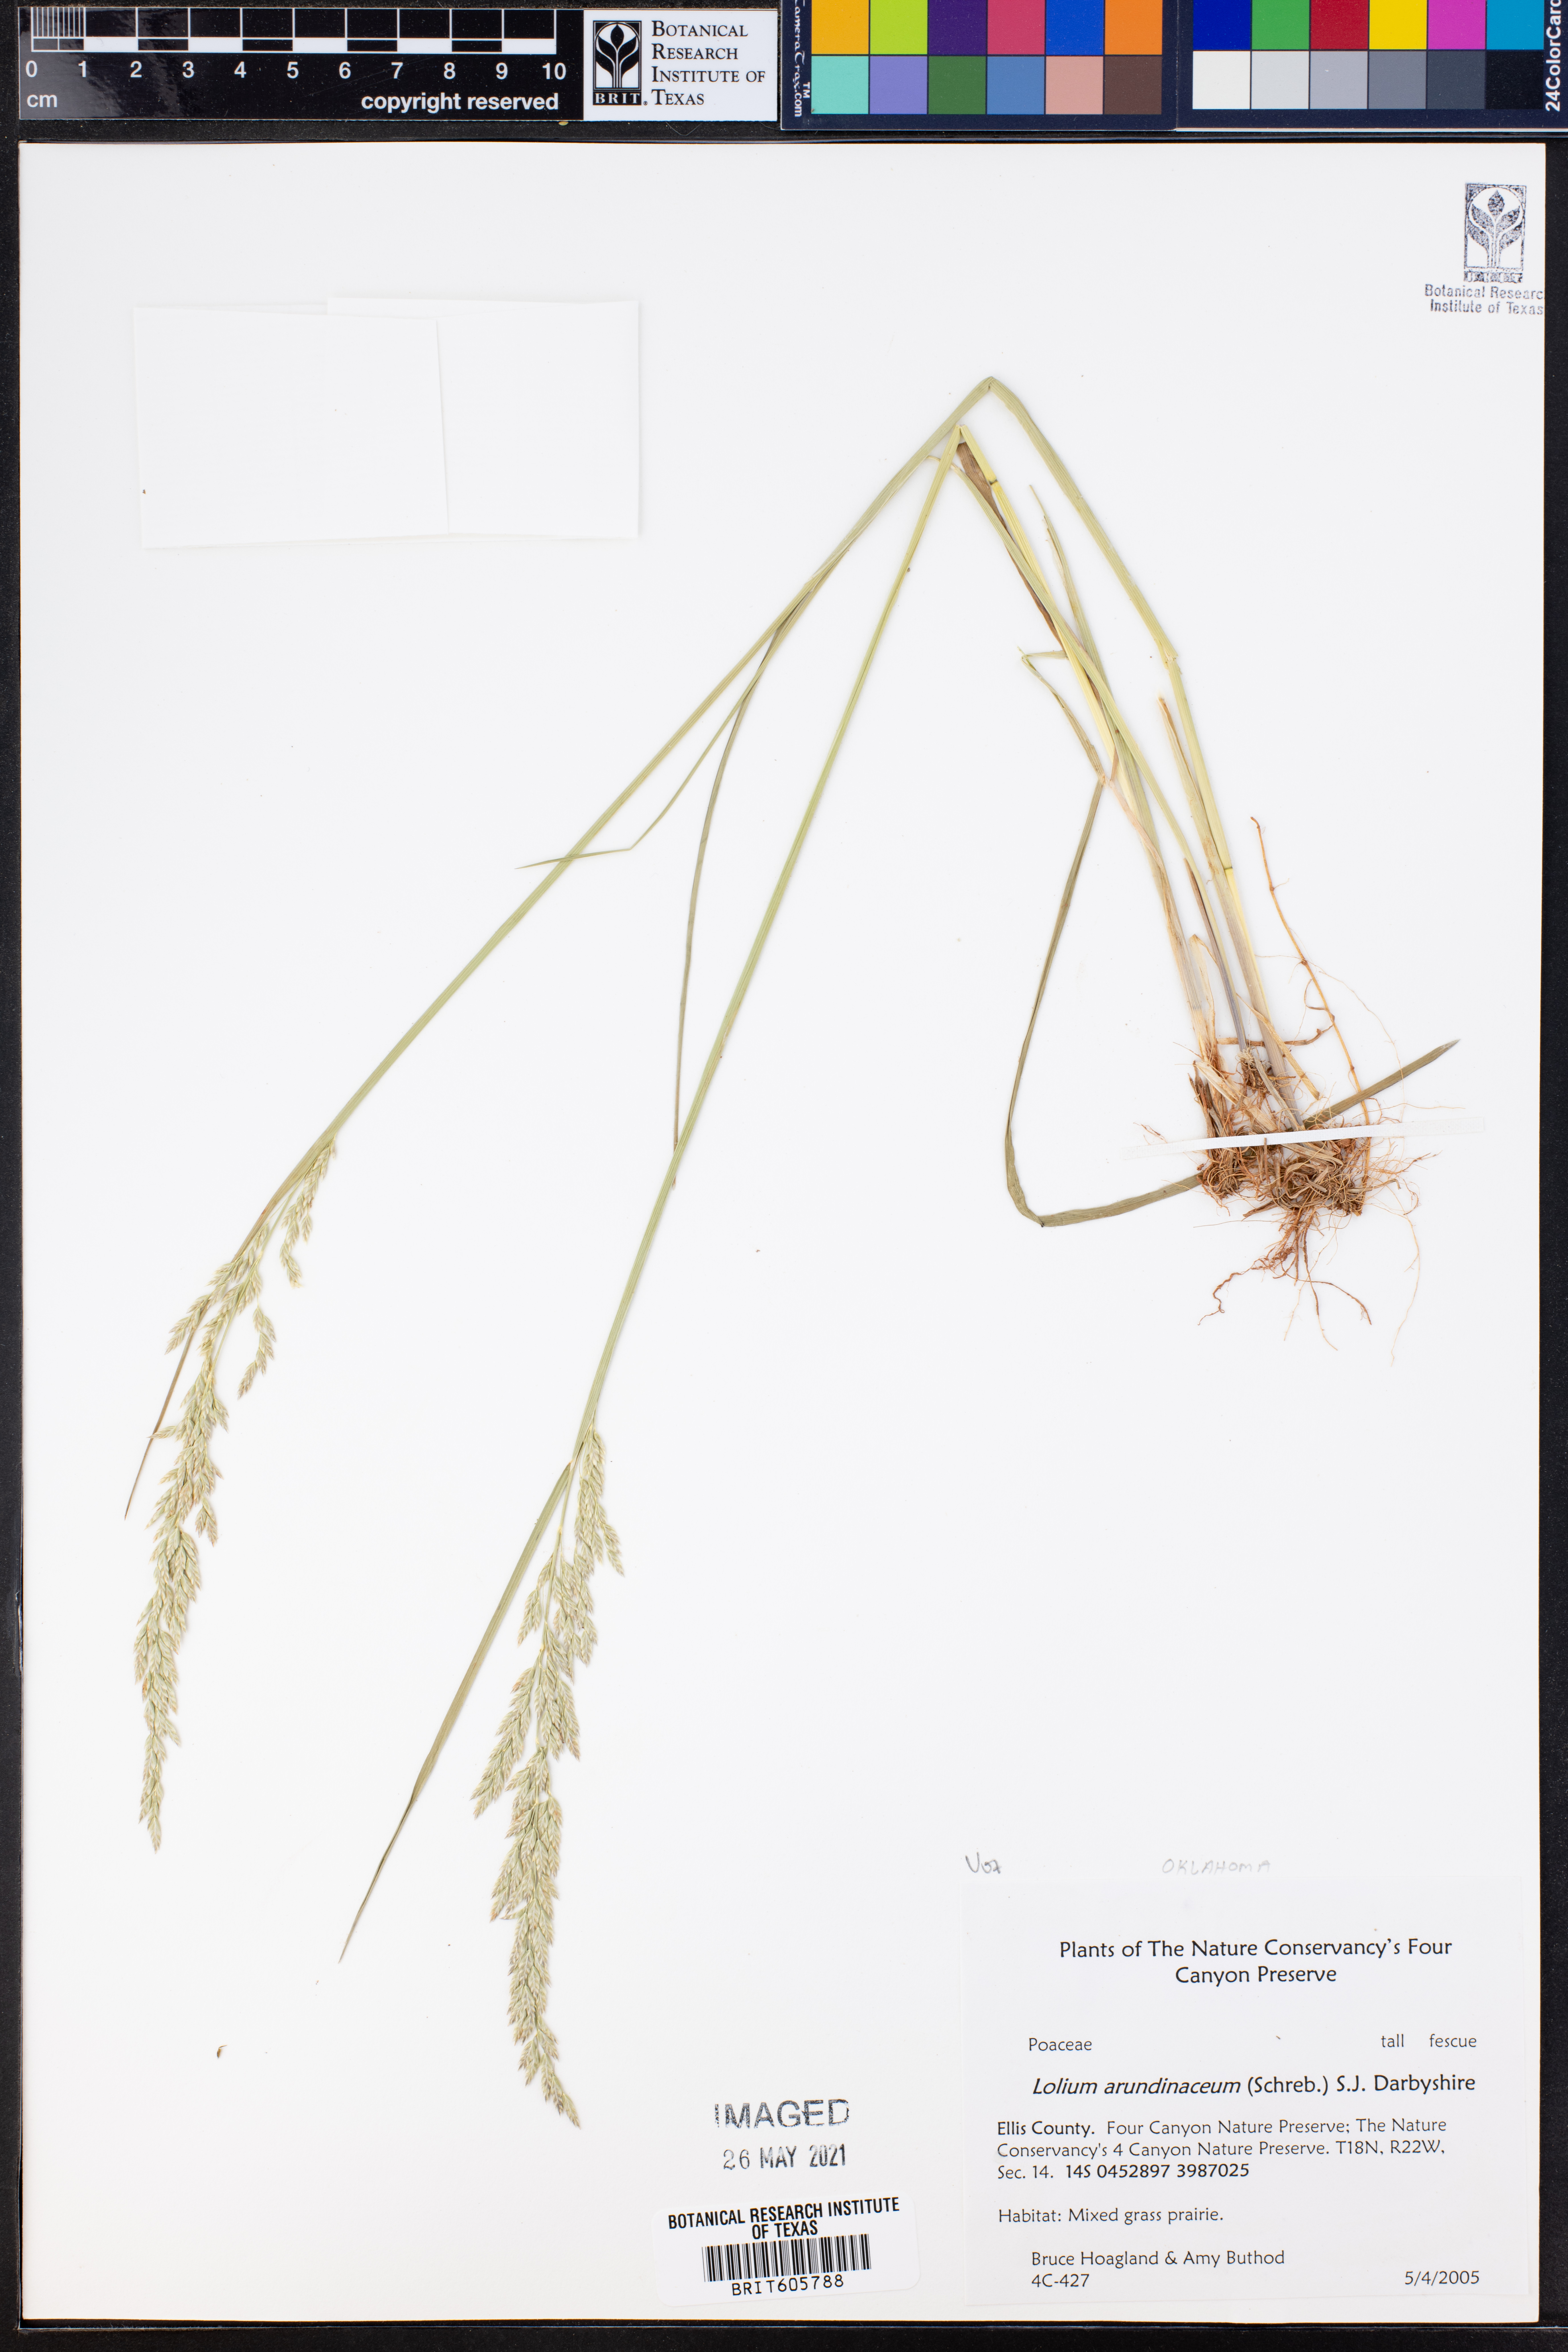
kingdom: Plantae
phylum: Tracheophyta
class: Liliopsida
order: Poales
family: Poaceae
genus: Lolium
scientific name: Lolium arundinaceum
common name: Reed fescue
